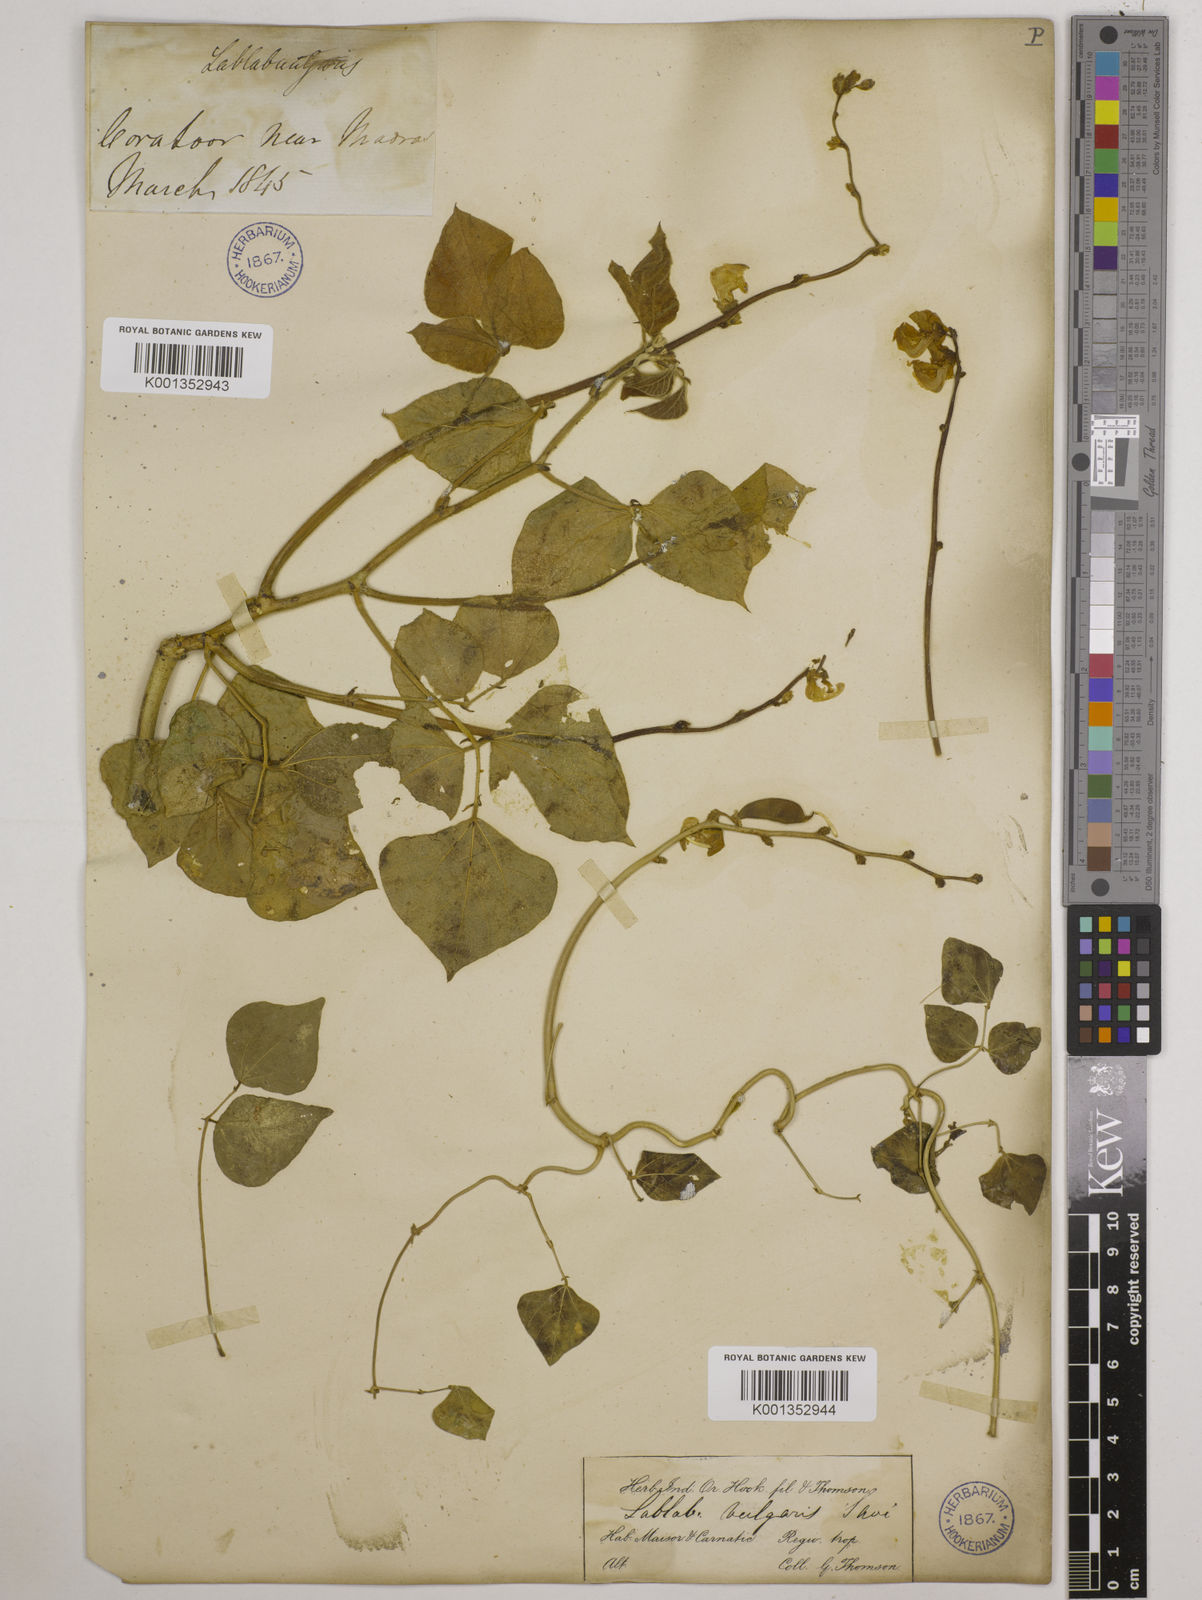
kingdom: Plantae
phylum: Tracheophyta
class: Magnoliopsida
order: Fabales
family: Fabaceae
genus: Lablab
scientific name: Lablab purpureus
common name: Lablab-bean
